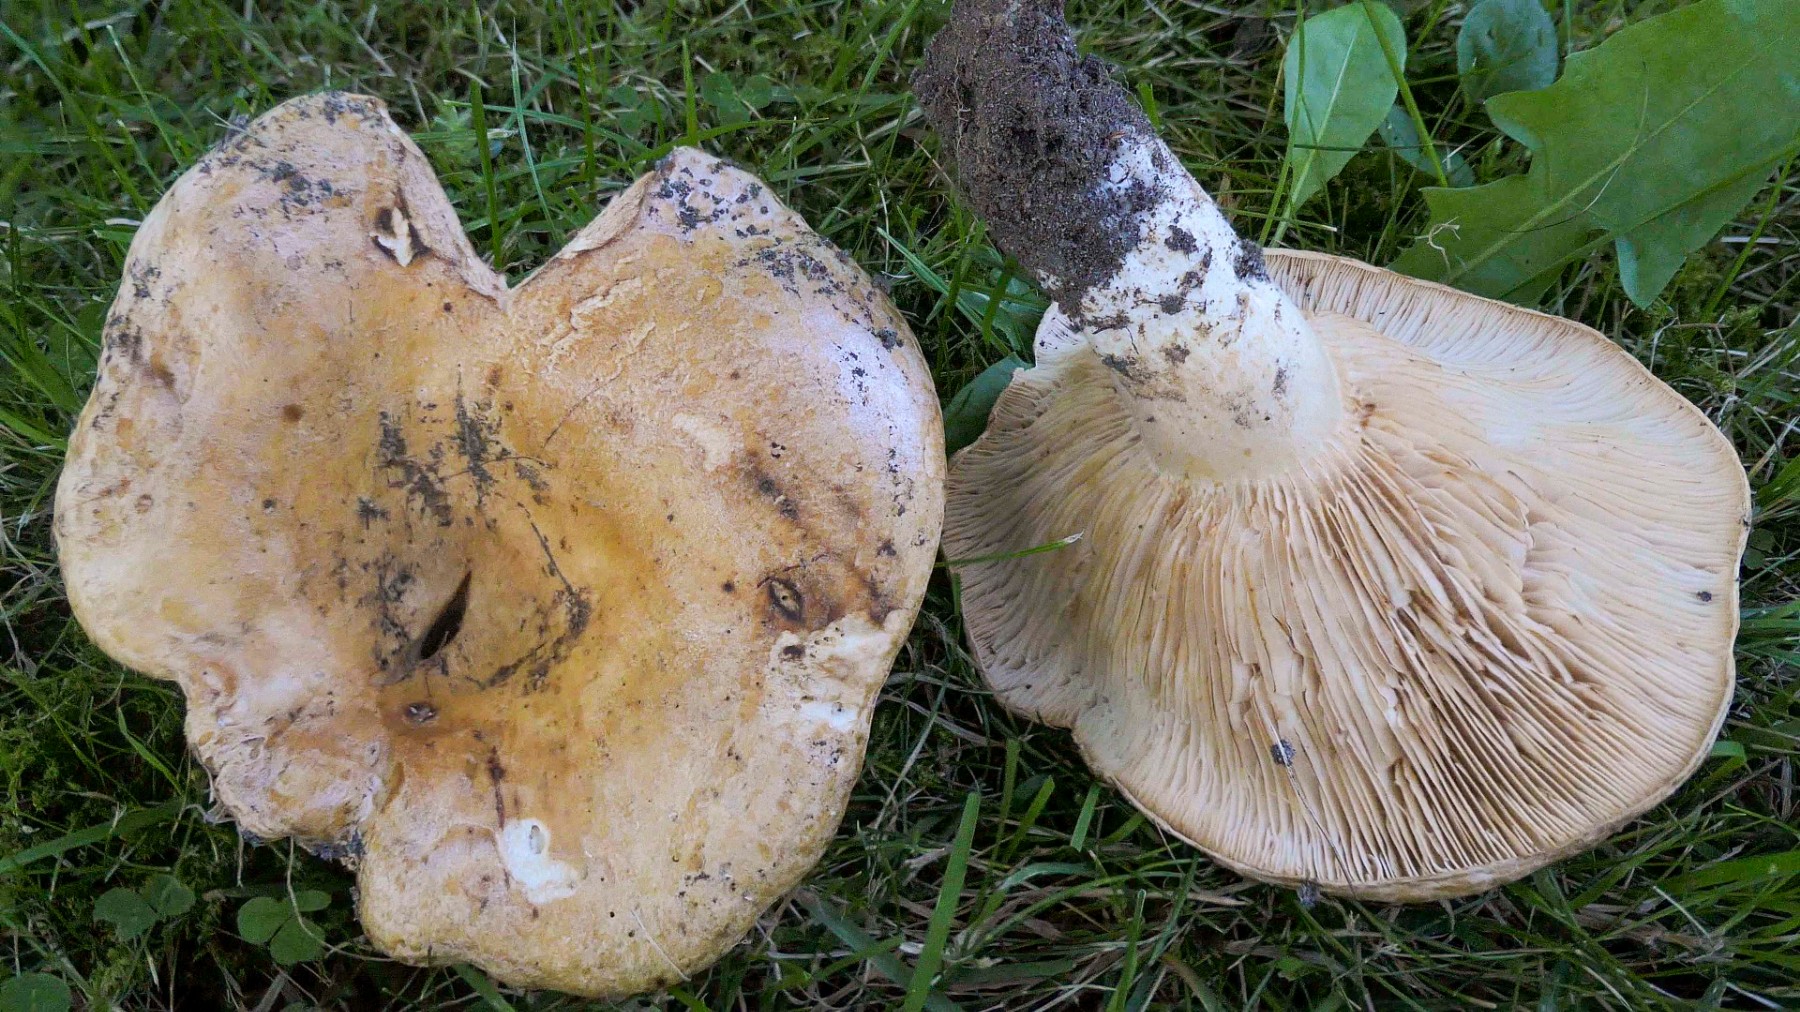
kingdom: Fungi
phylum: Basidiomycota
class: Agaricomycetes
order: Russulales
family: Russulaceae
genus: Lactarius
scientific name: Lactarius acerrimus
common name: brændende mælkehat
